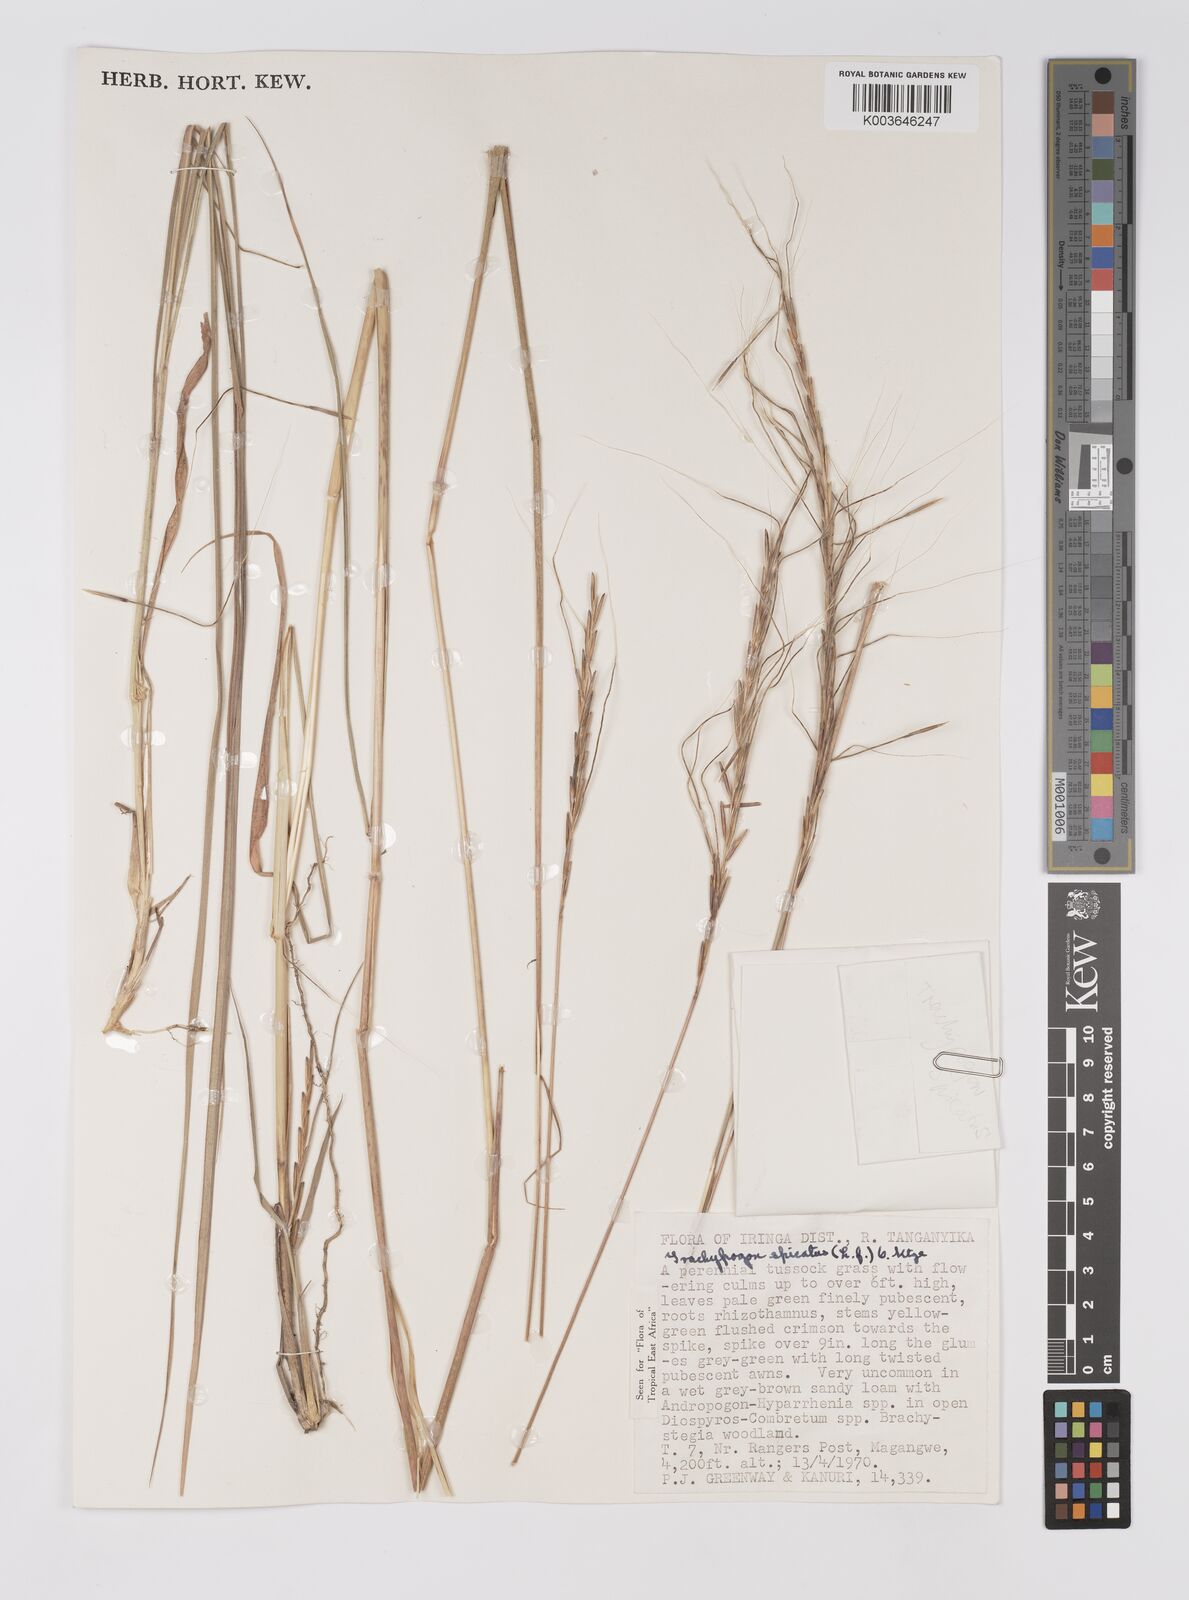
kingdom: Plantae
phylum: Tracheophyta
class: Liliopsida
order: Poales
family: Poaceae
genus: Trachypogon
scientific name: Trachypogon spicatus
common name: Crinkle-awn
